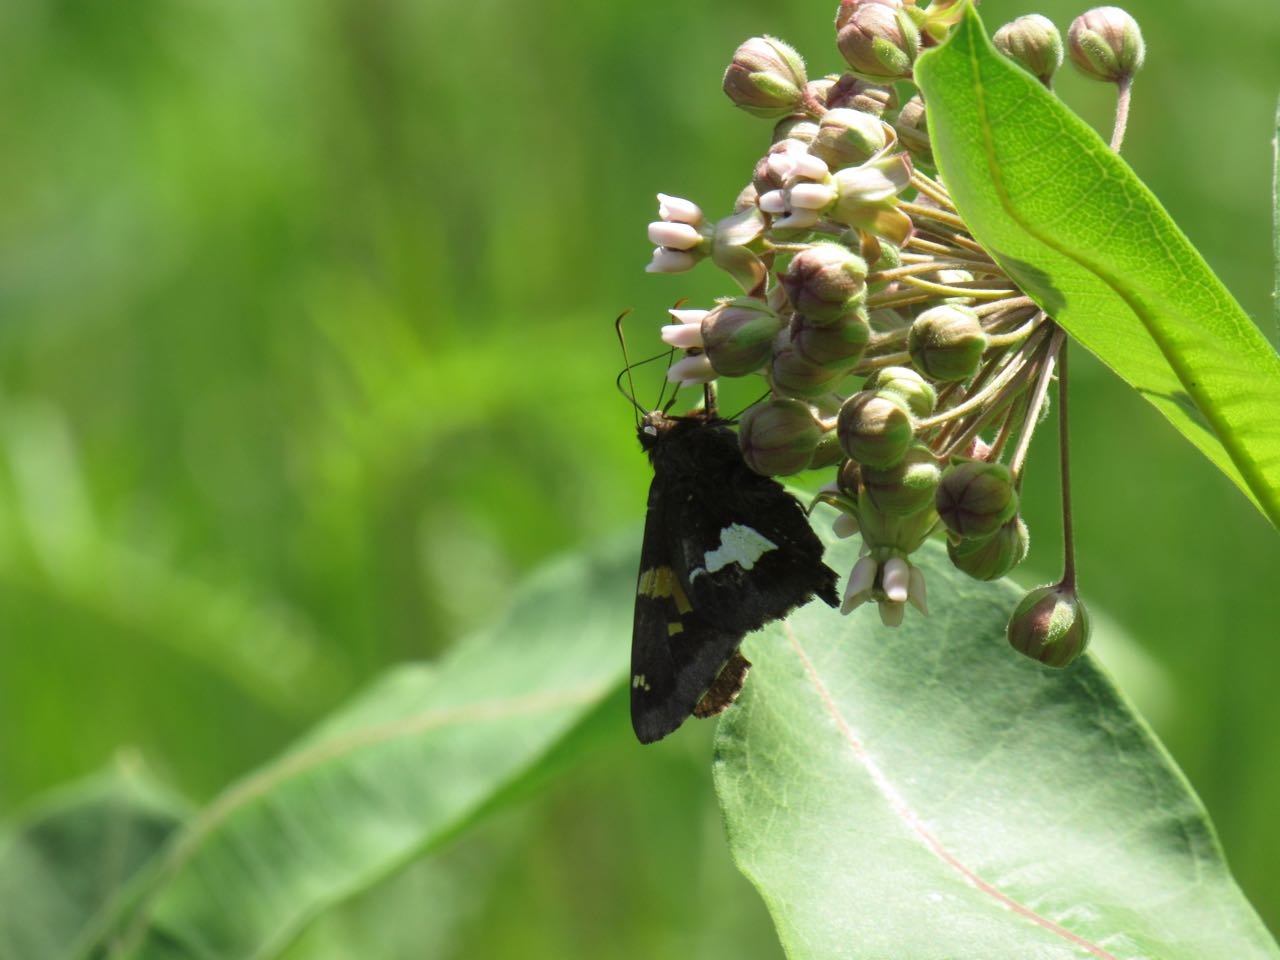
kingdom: Animalia
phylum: Arthropoda
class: Insecta
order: Lepidoptera
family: Hesperiidae
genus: Epargyreus
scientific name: Epargyreus clarus
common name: Silver-spotted Skipper
